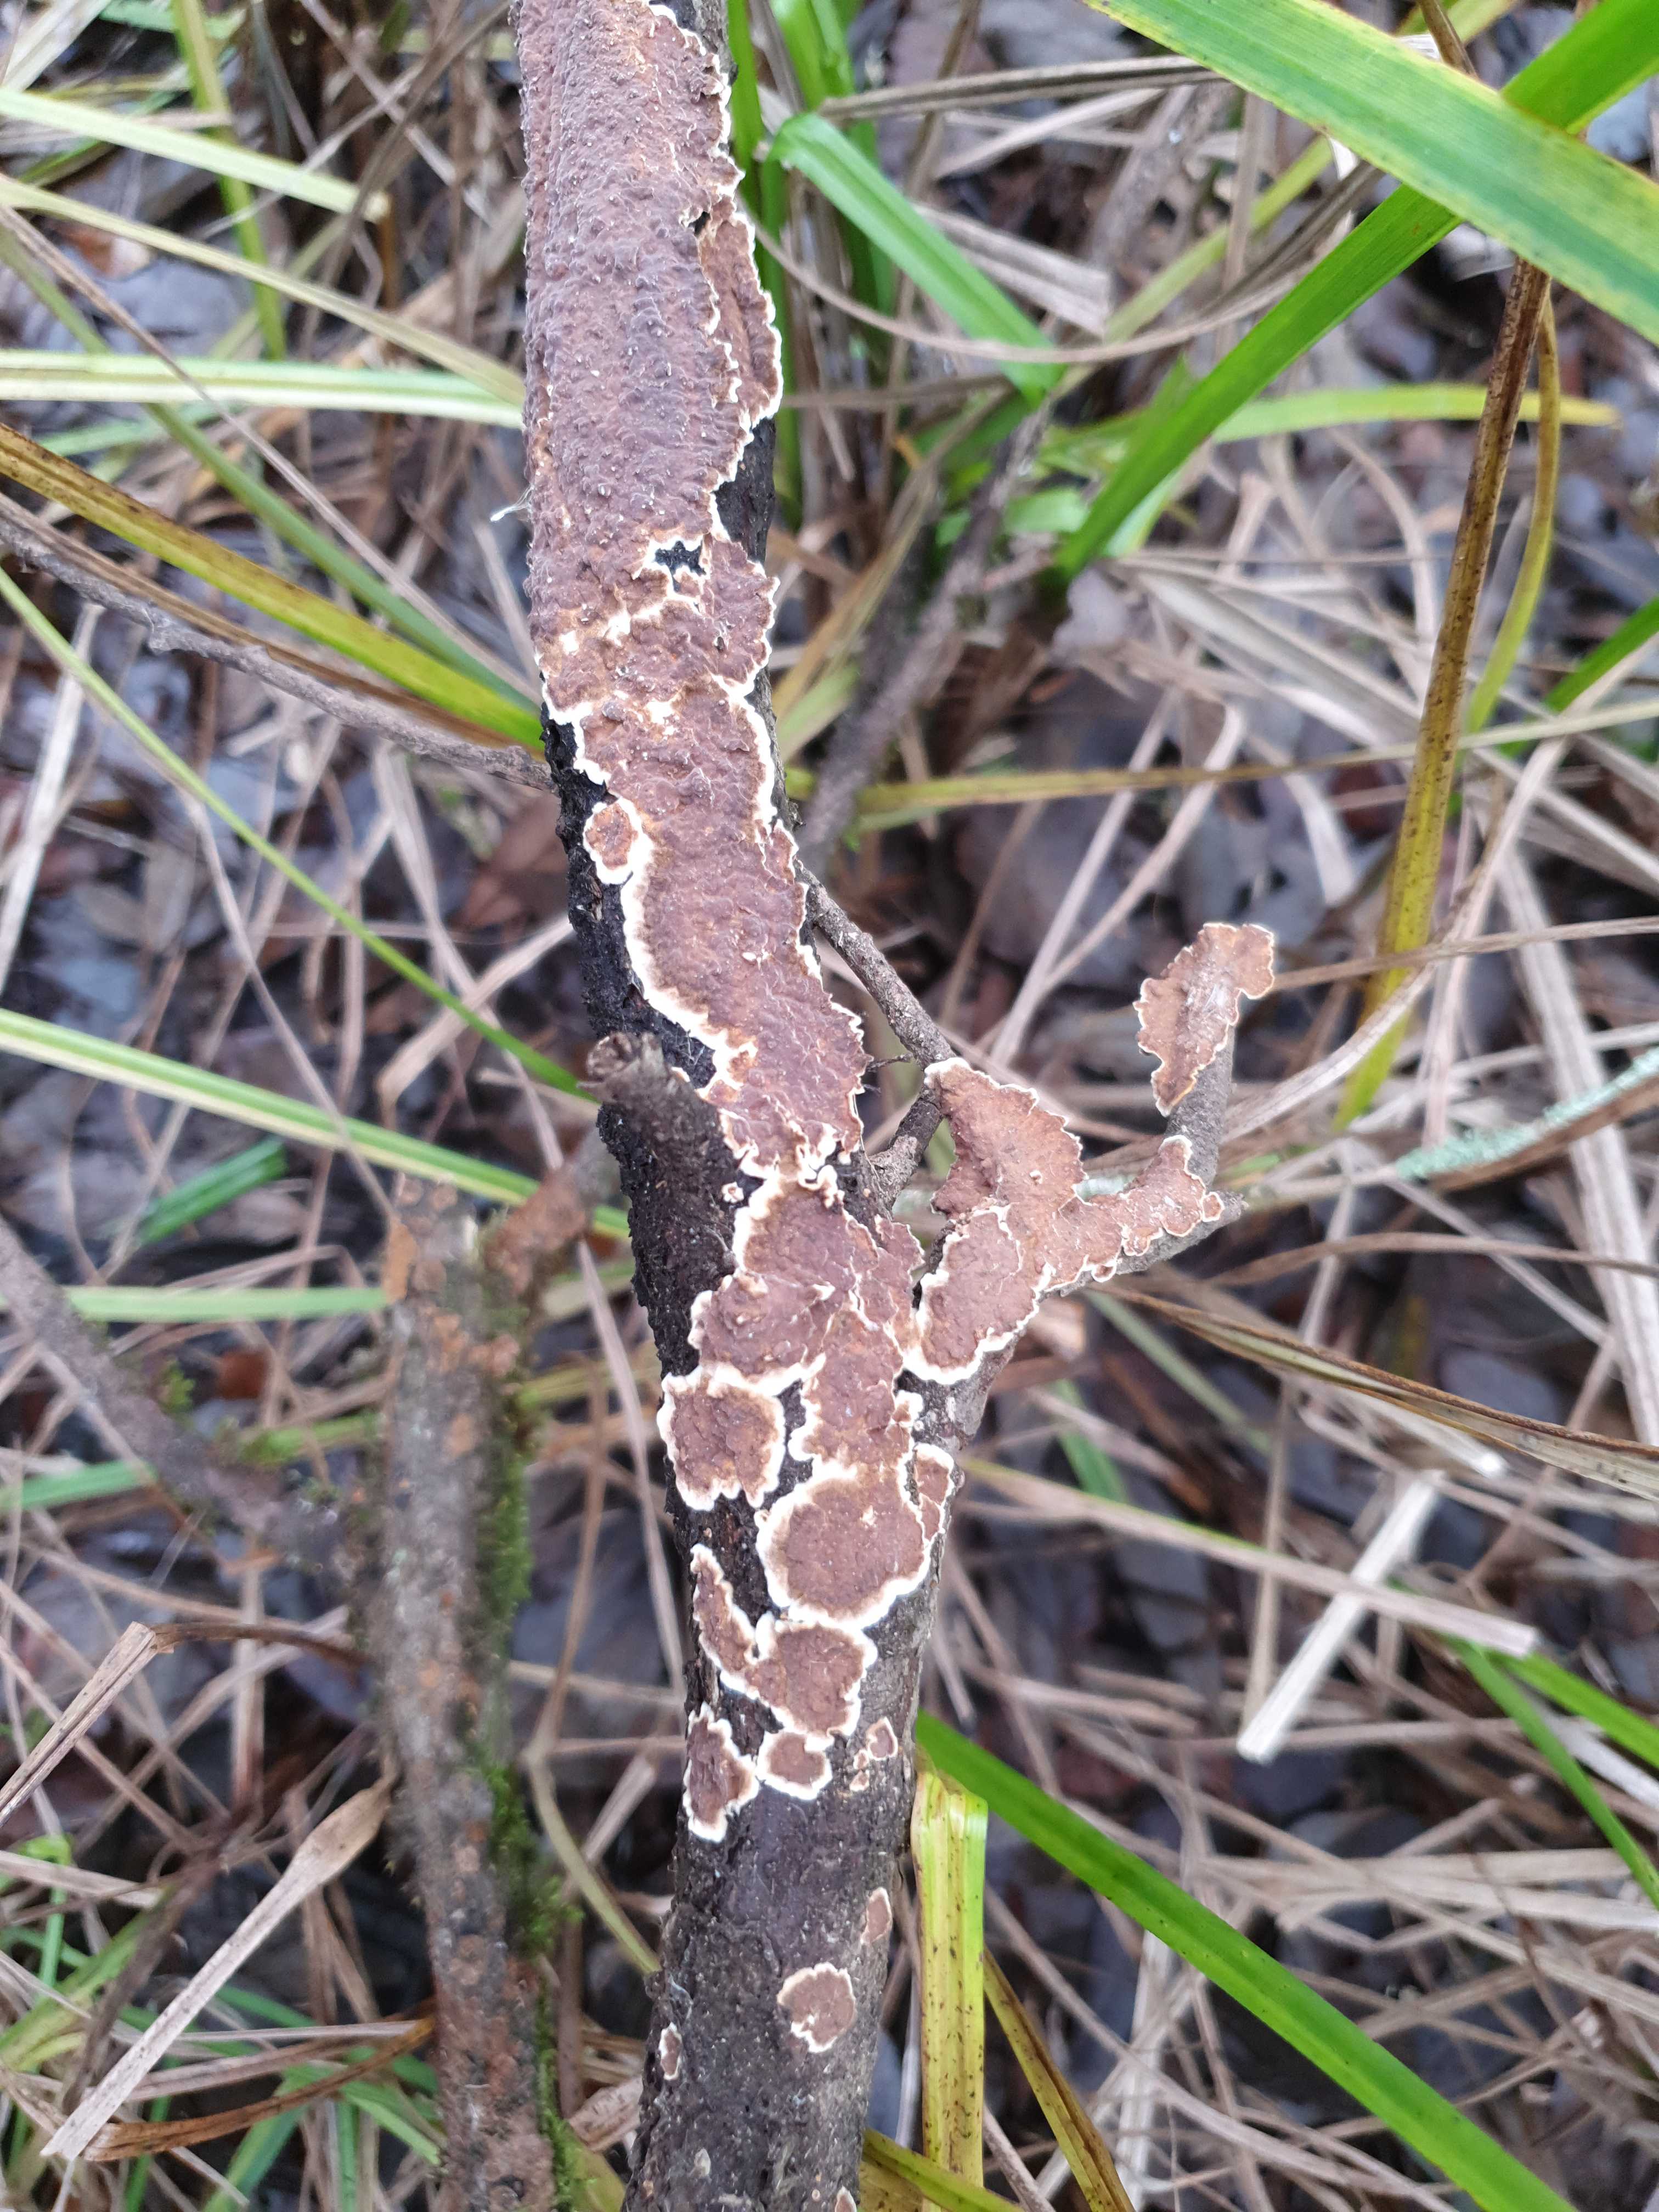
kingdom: Fungi
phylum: Basidiomycota
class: Agaricomycetes
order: Hymenochaetales
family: Hymenochaetaceae
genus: Hydnoporia
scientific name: Hydnoporia tabacina
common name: tobaksbrun ruslædersvamp
